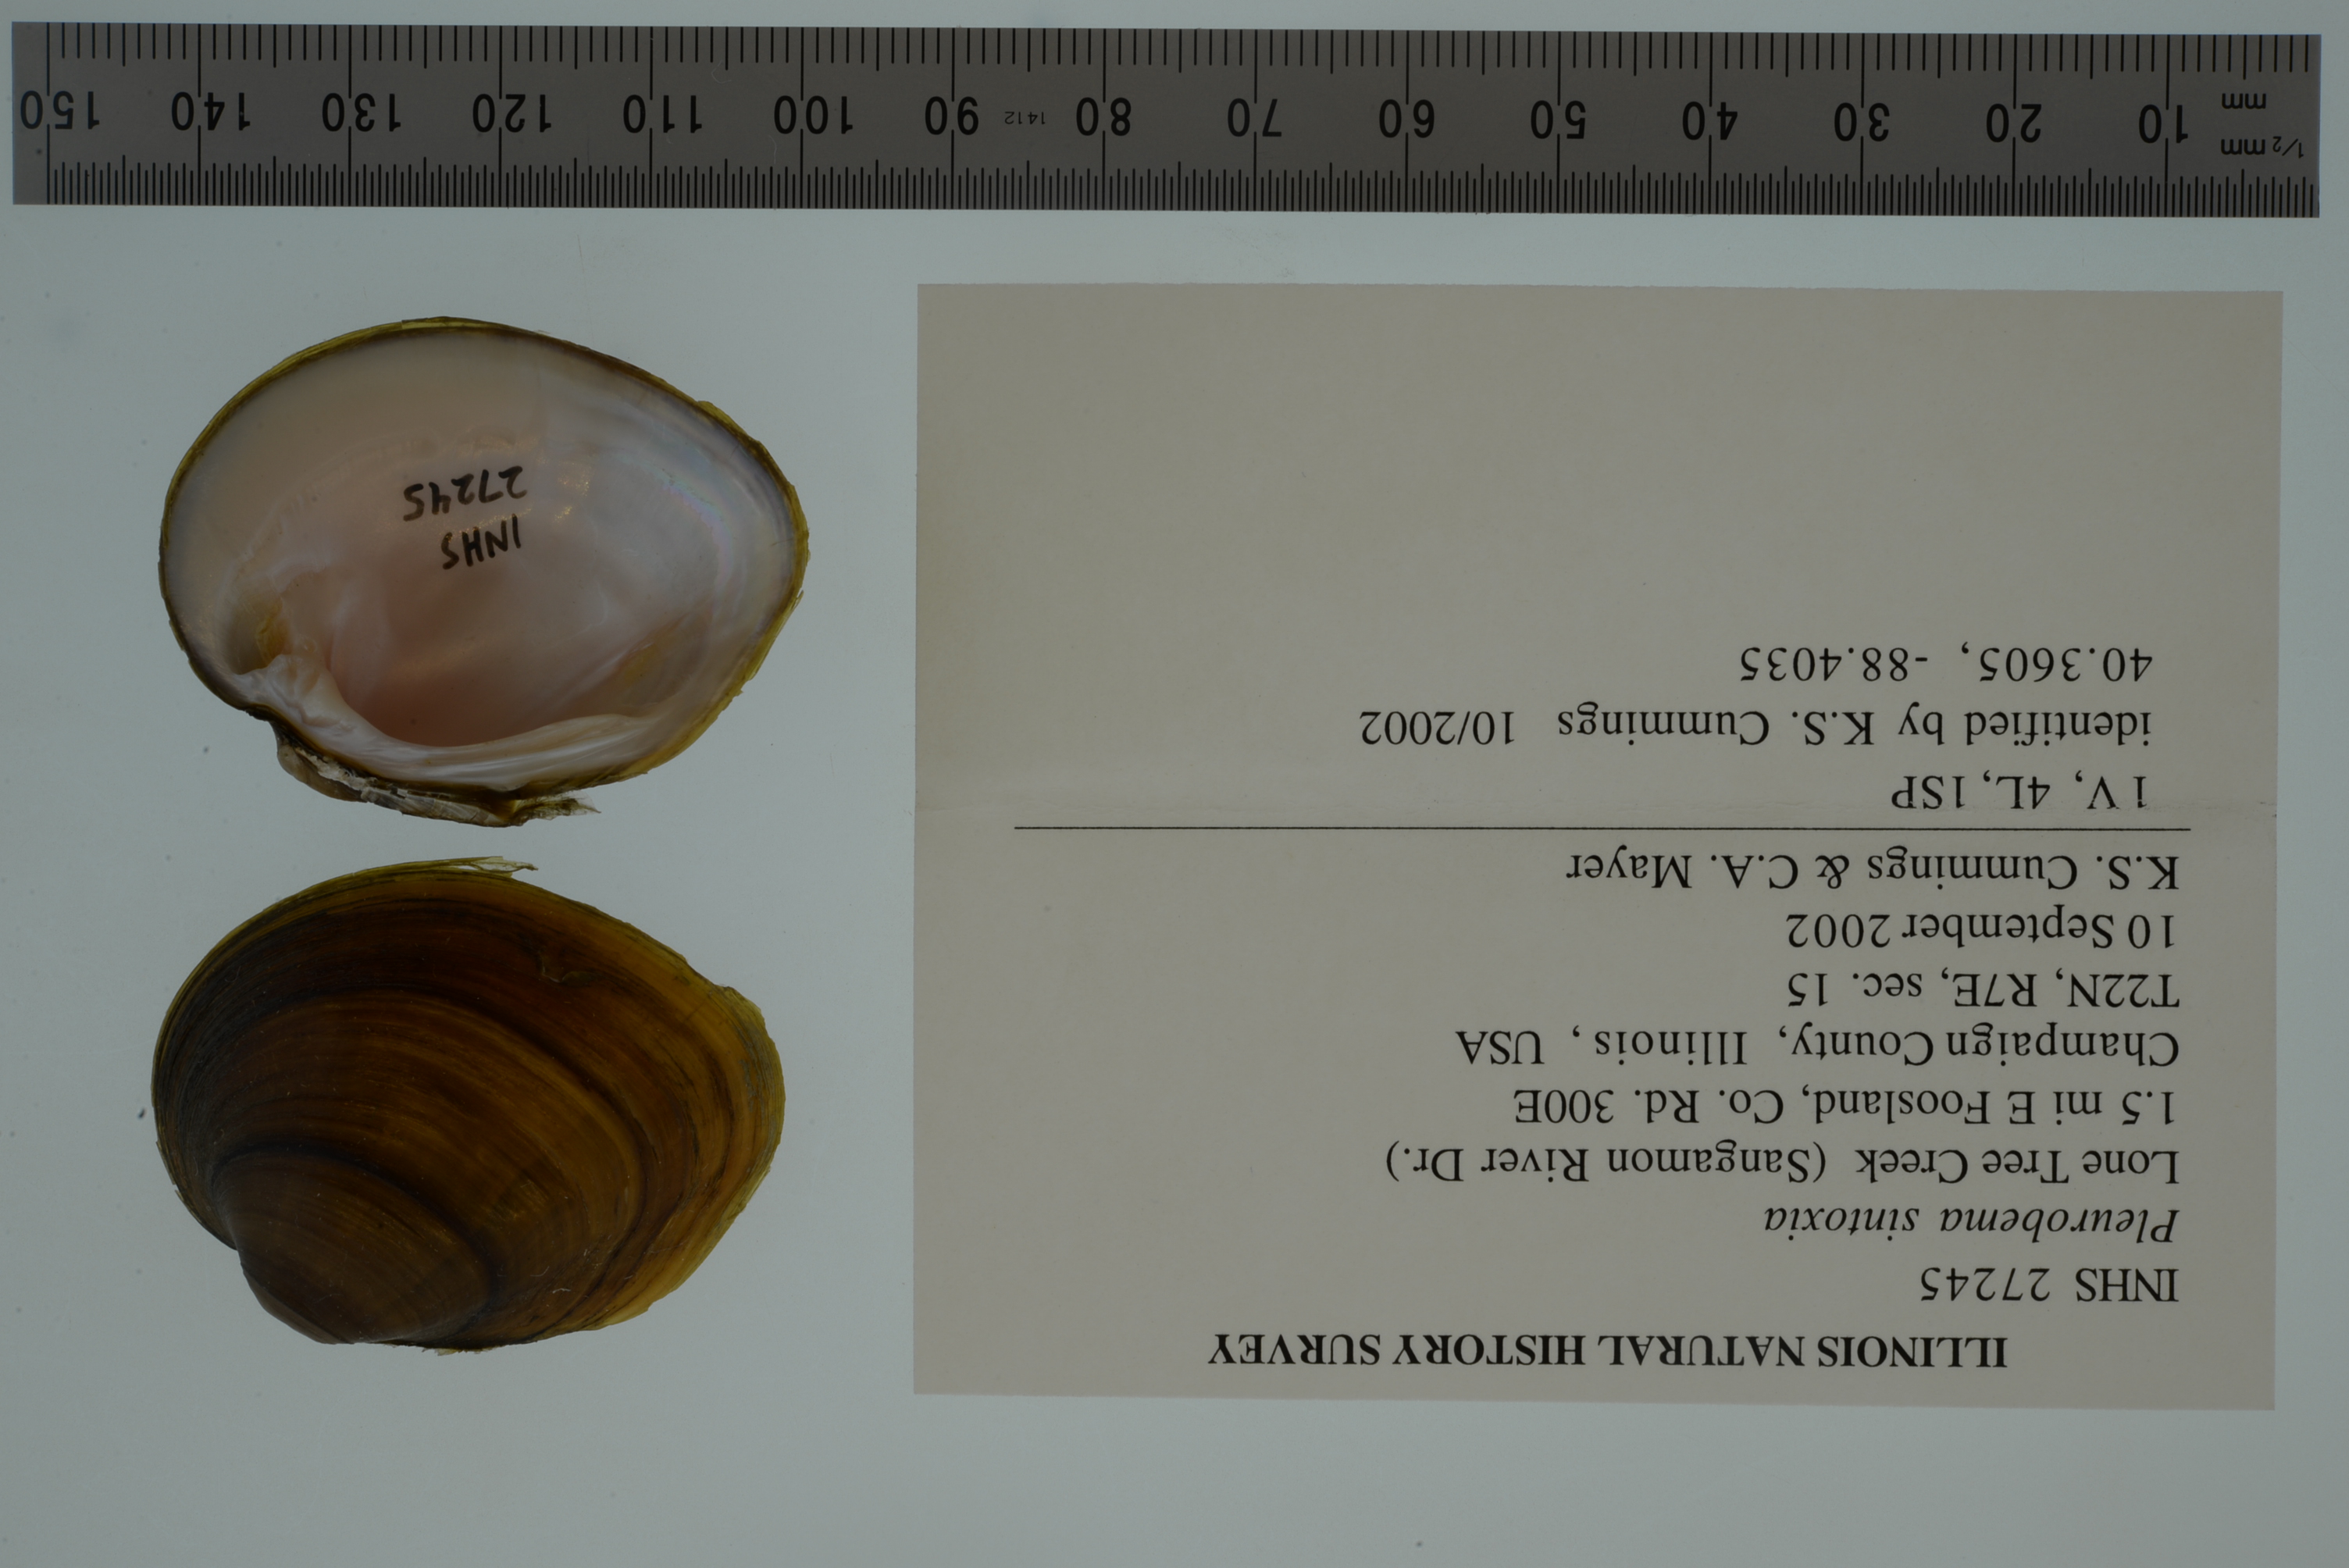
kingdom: Animalia
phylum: Mollusca
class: Bivalvia
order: Unionida
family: Unionidae
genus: Pleurobema
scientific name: Pleurobema sintoxia
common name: Round pigtoe
